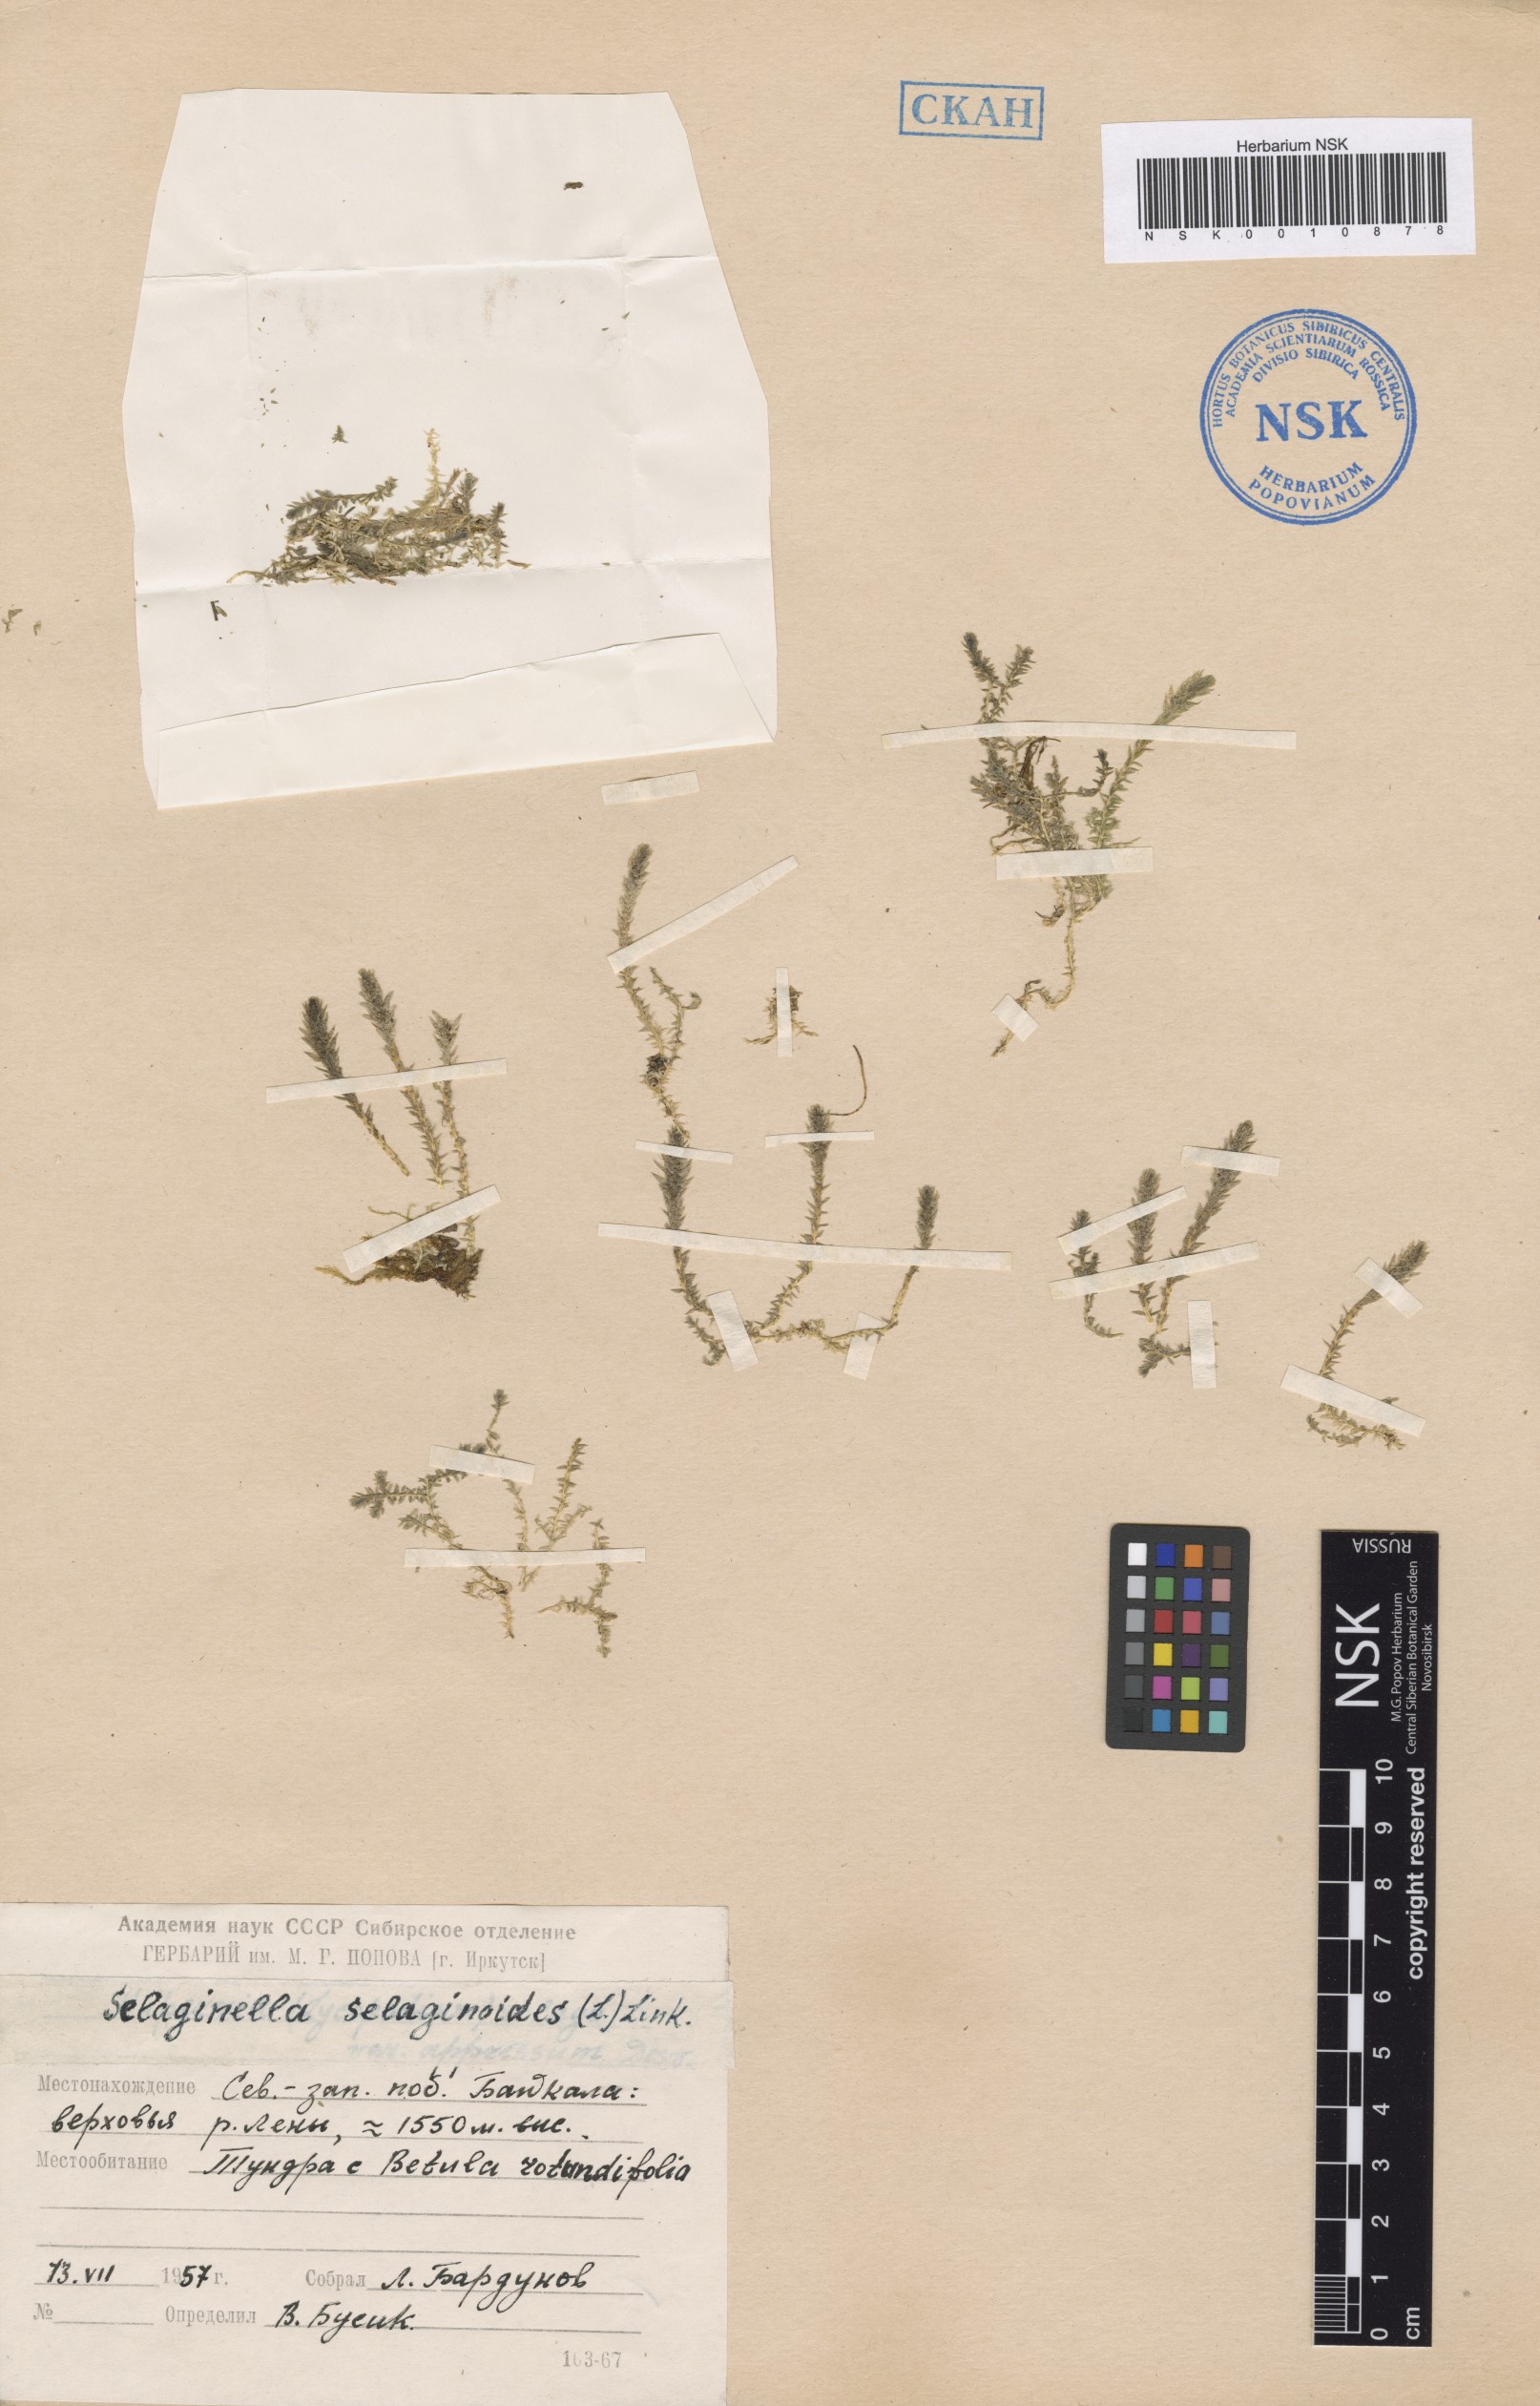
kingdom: Plantae
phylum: Tracheophyta
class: Lycopodiopsida
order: Selaginellales
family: Selaginellaceae
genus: Selaginella
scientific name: Selaginella selaginoides
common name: Prickly mountain-moss
